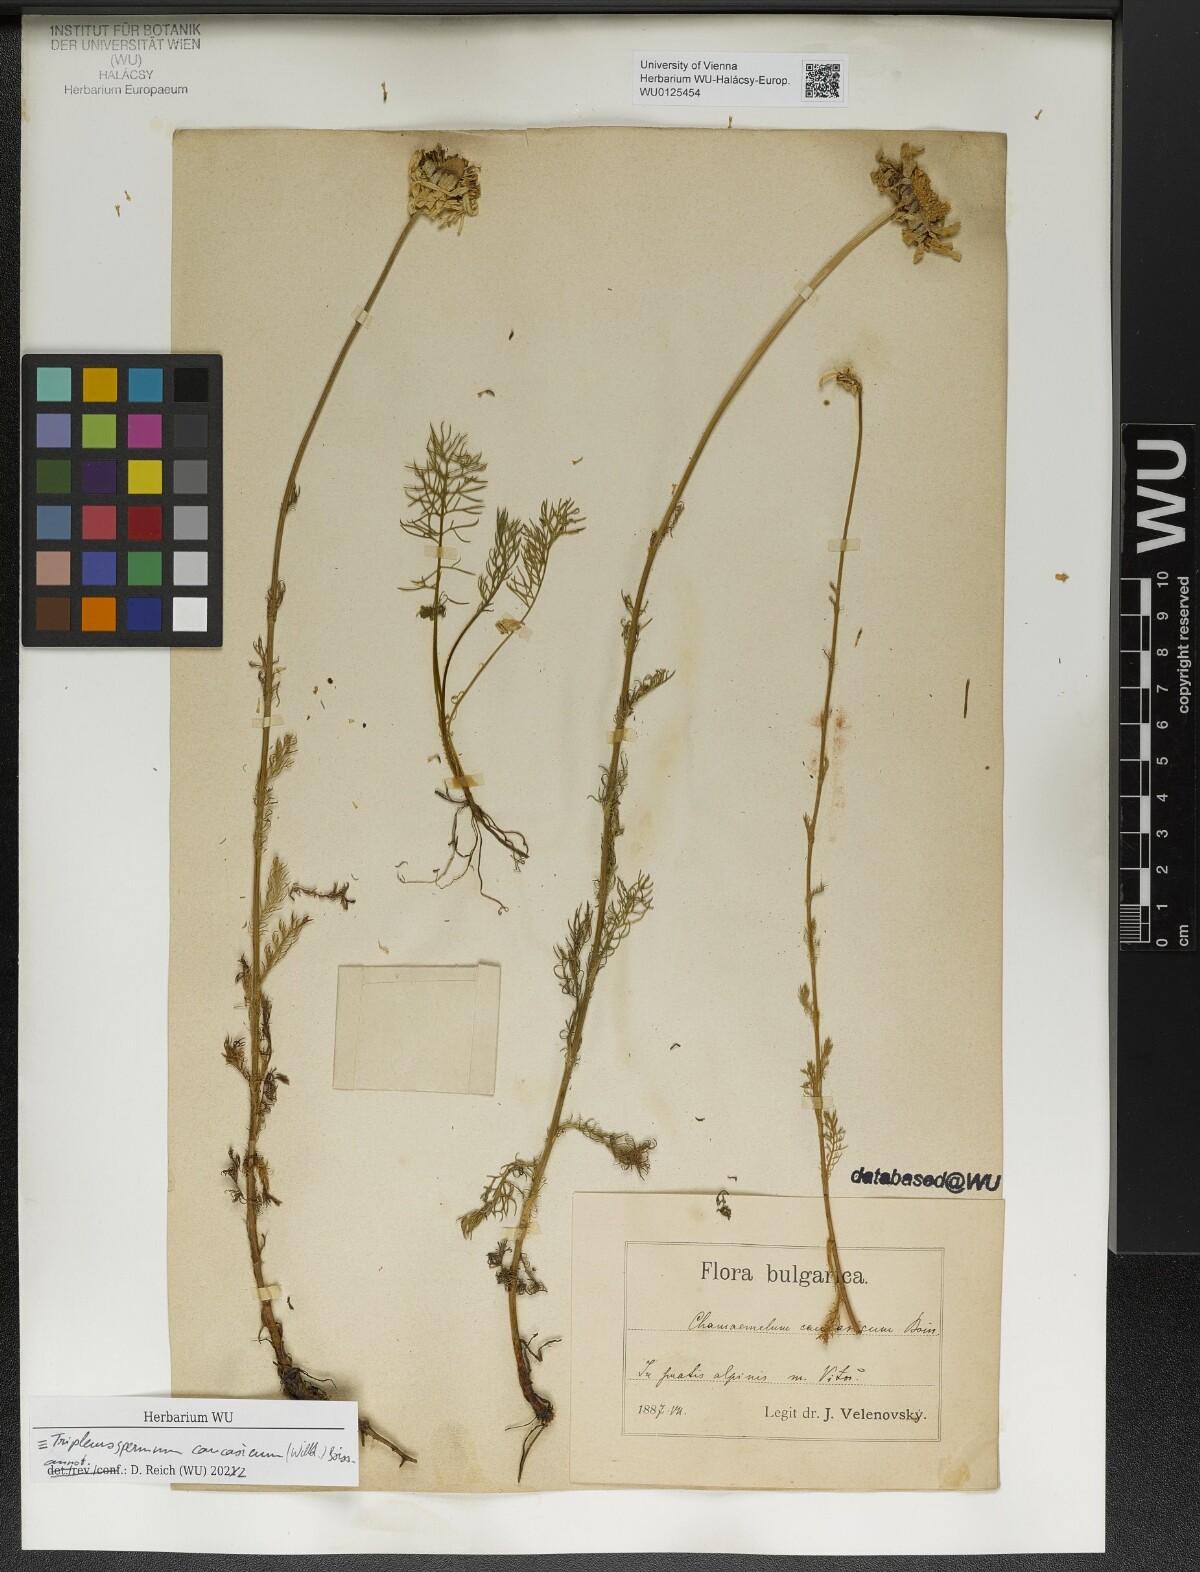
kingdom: Plantae
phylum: Tracheophyta
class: Magnoliopsida
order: Asterales
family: Asteraceae
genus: Tripleurospermum
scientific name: Tripleurospermum caucasicum
